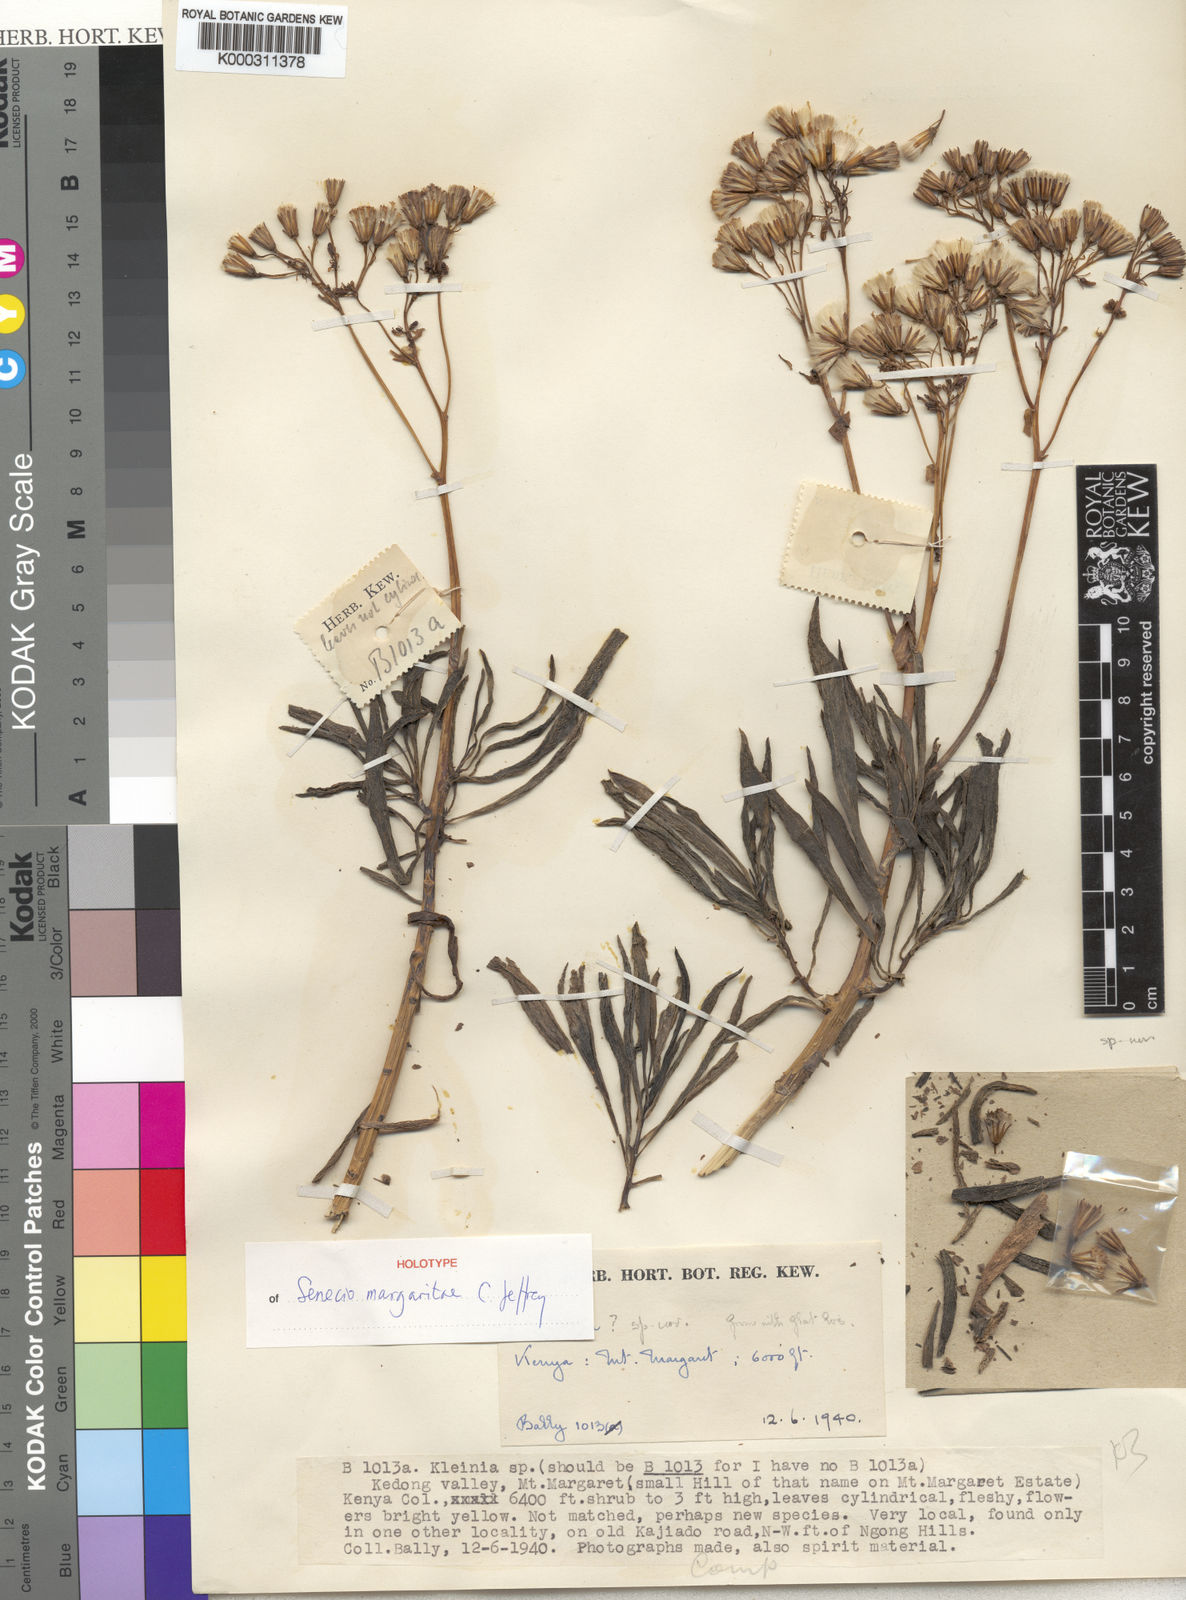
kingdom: Plantae
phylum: Tracheophyta
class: Magnoliopsida
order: Asterales
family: Asteraceae
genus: Senecio
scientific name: Senecio margaritae
